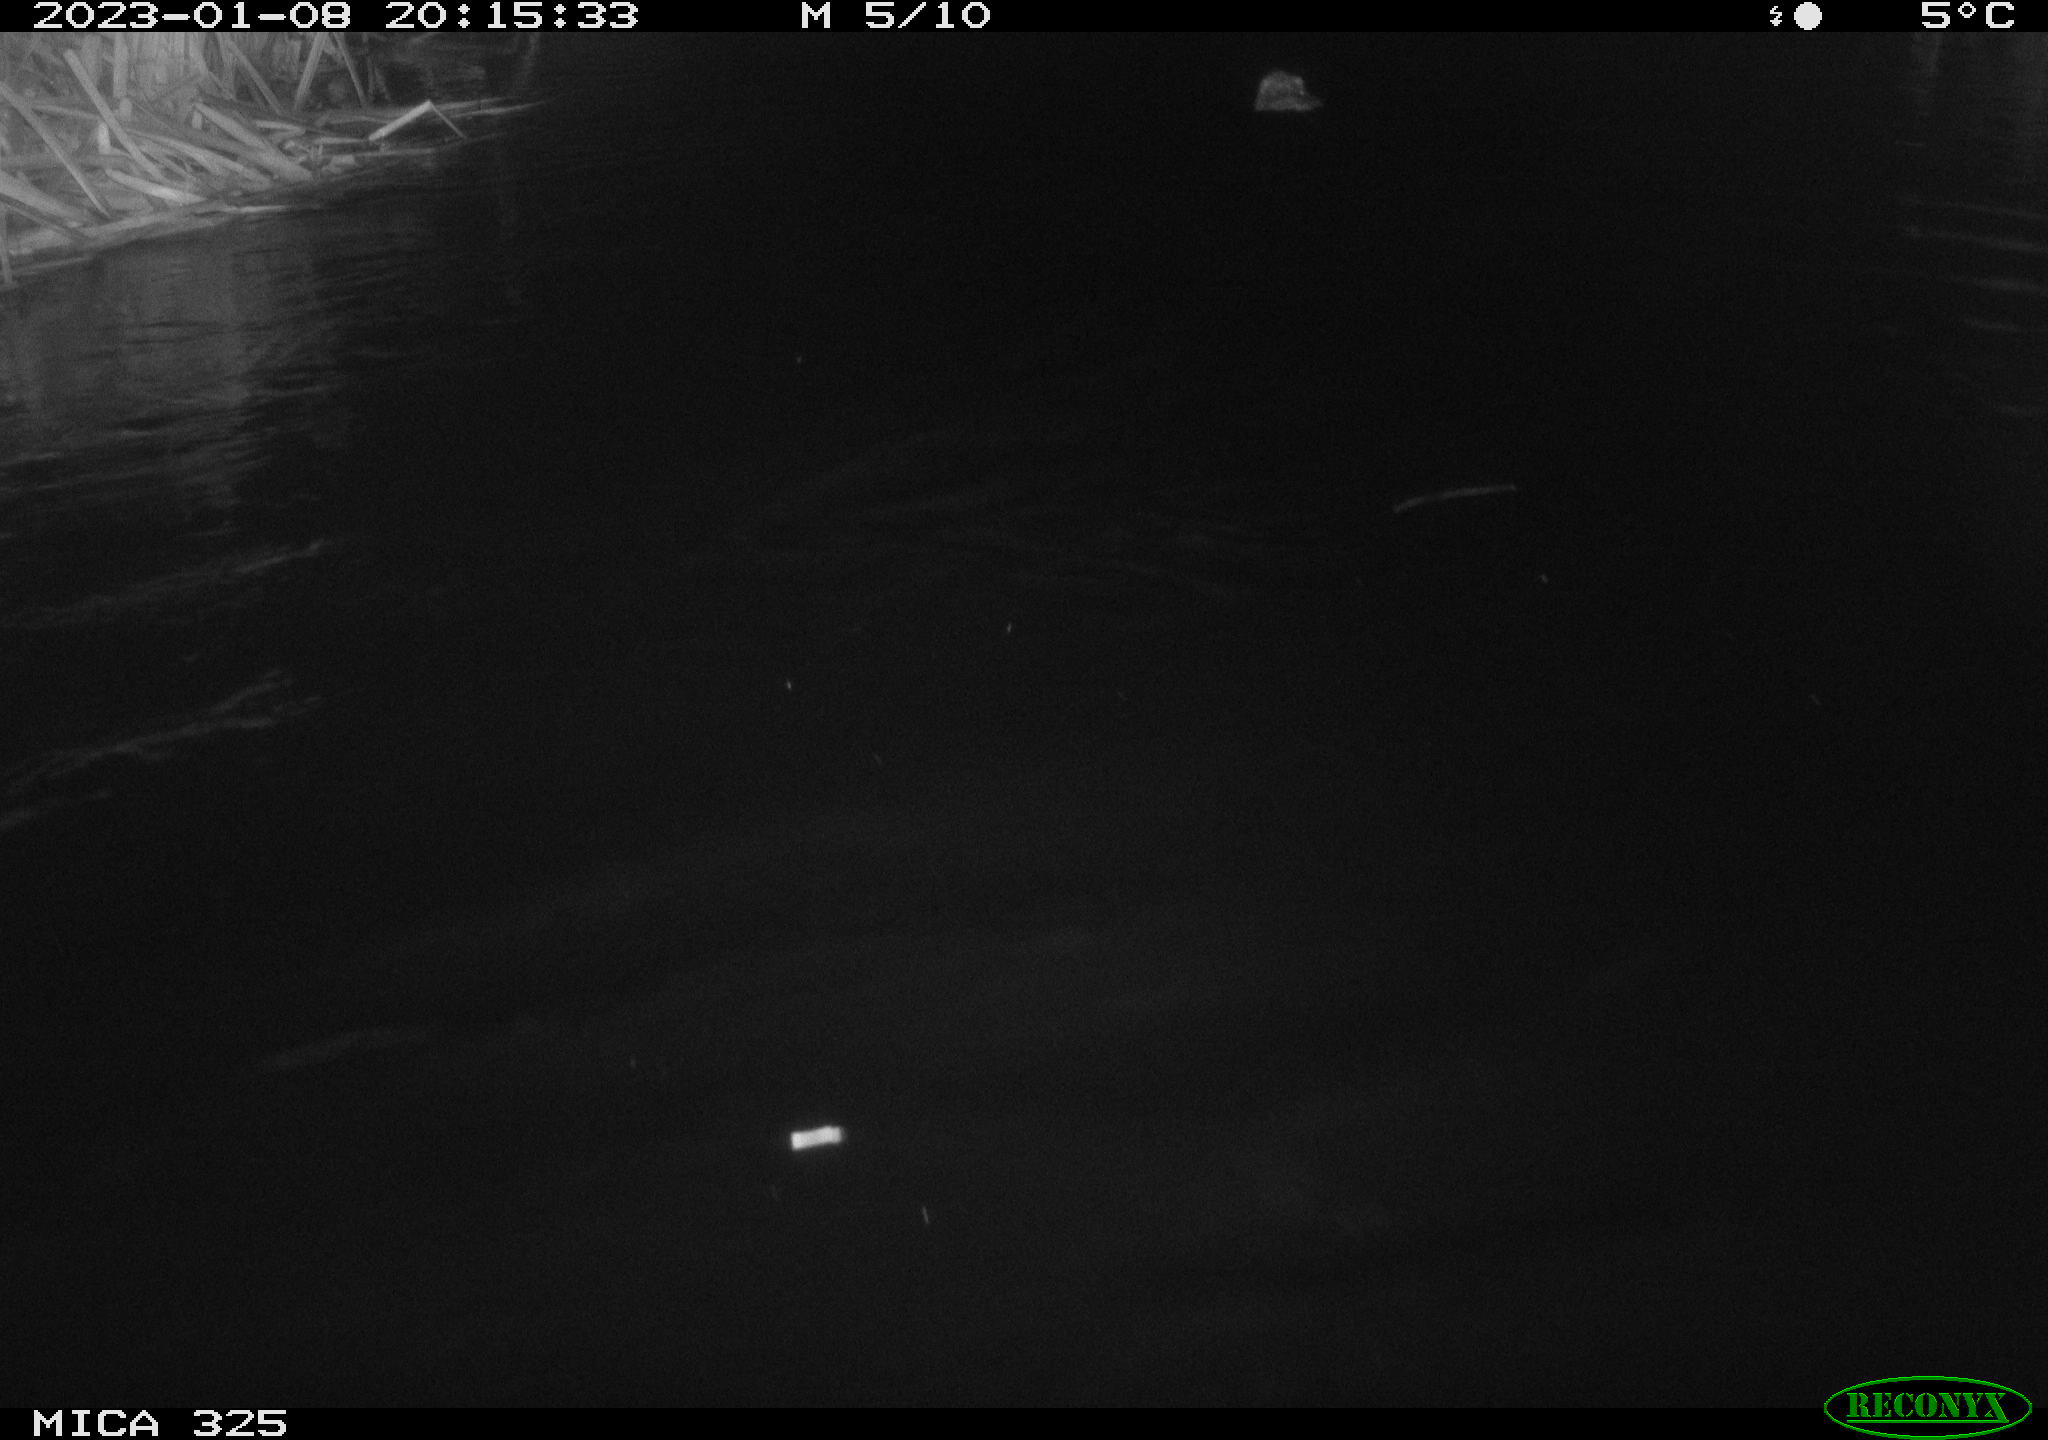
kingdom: Animalia
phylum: Chordata
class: Mammalia
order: Rodentia
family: Cricetidae
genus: Ondatra
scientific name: Ondatra zibethicus
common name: Muskrat
